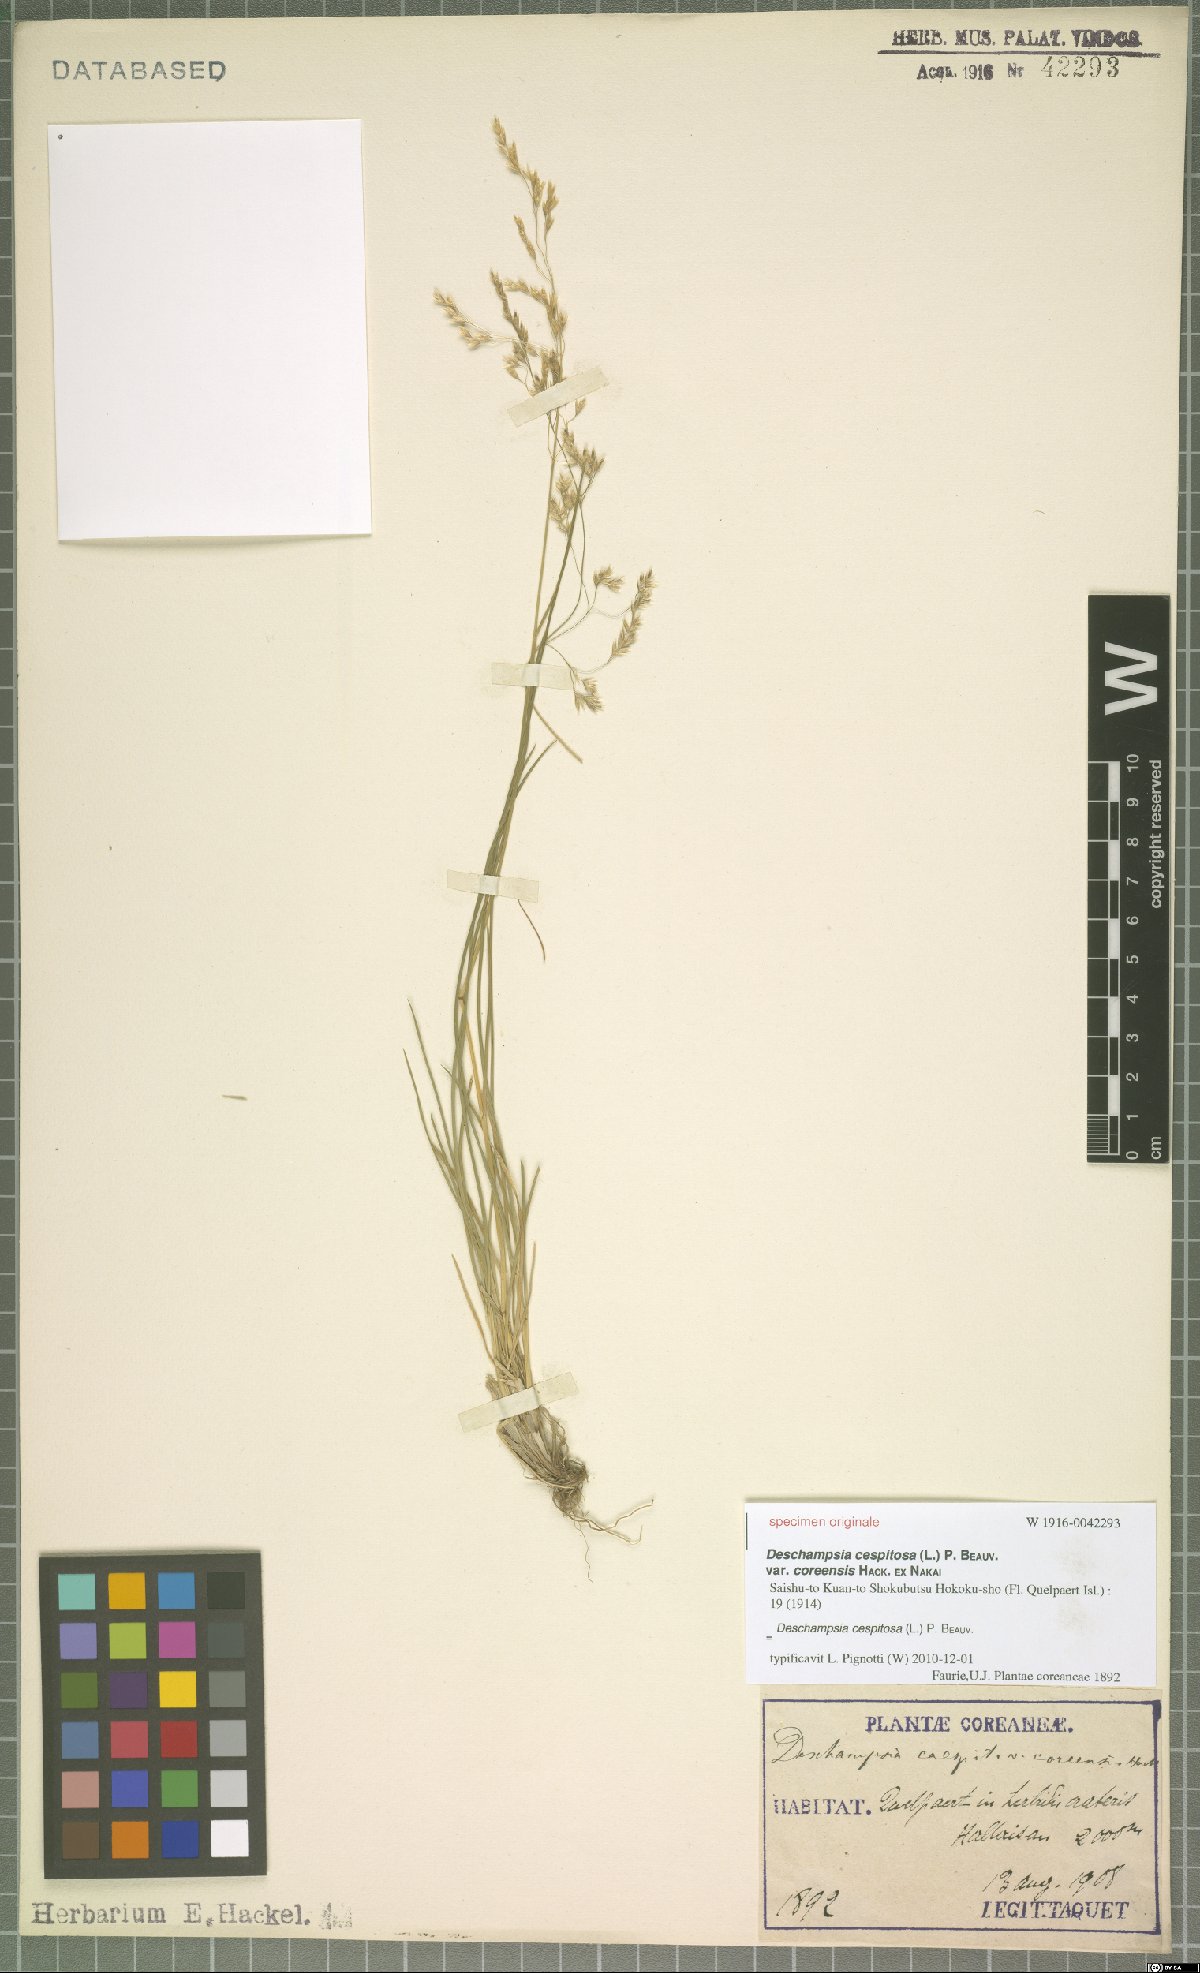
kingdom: Plantae
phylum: Tracheophyta
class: Liliopsida
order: Poales
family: Poaceae
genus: Deschampsia
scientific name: Deschampsia cespitosa
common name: Tufted hair-grass
